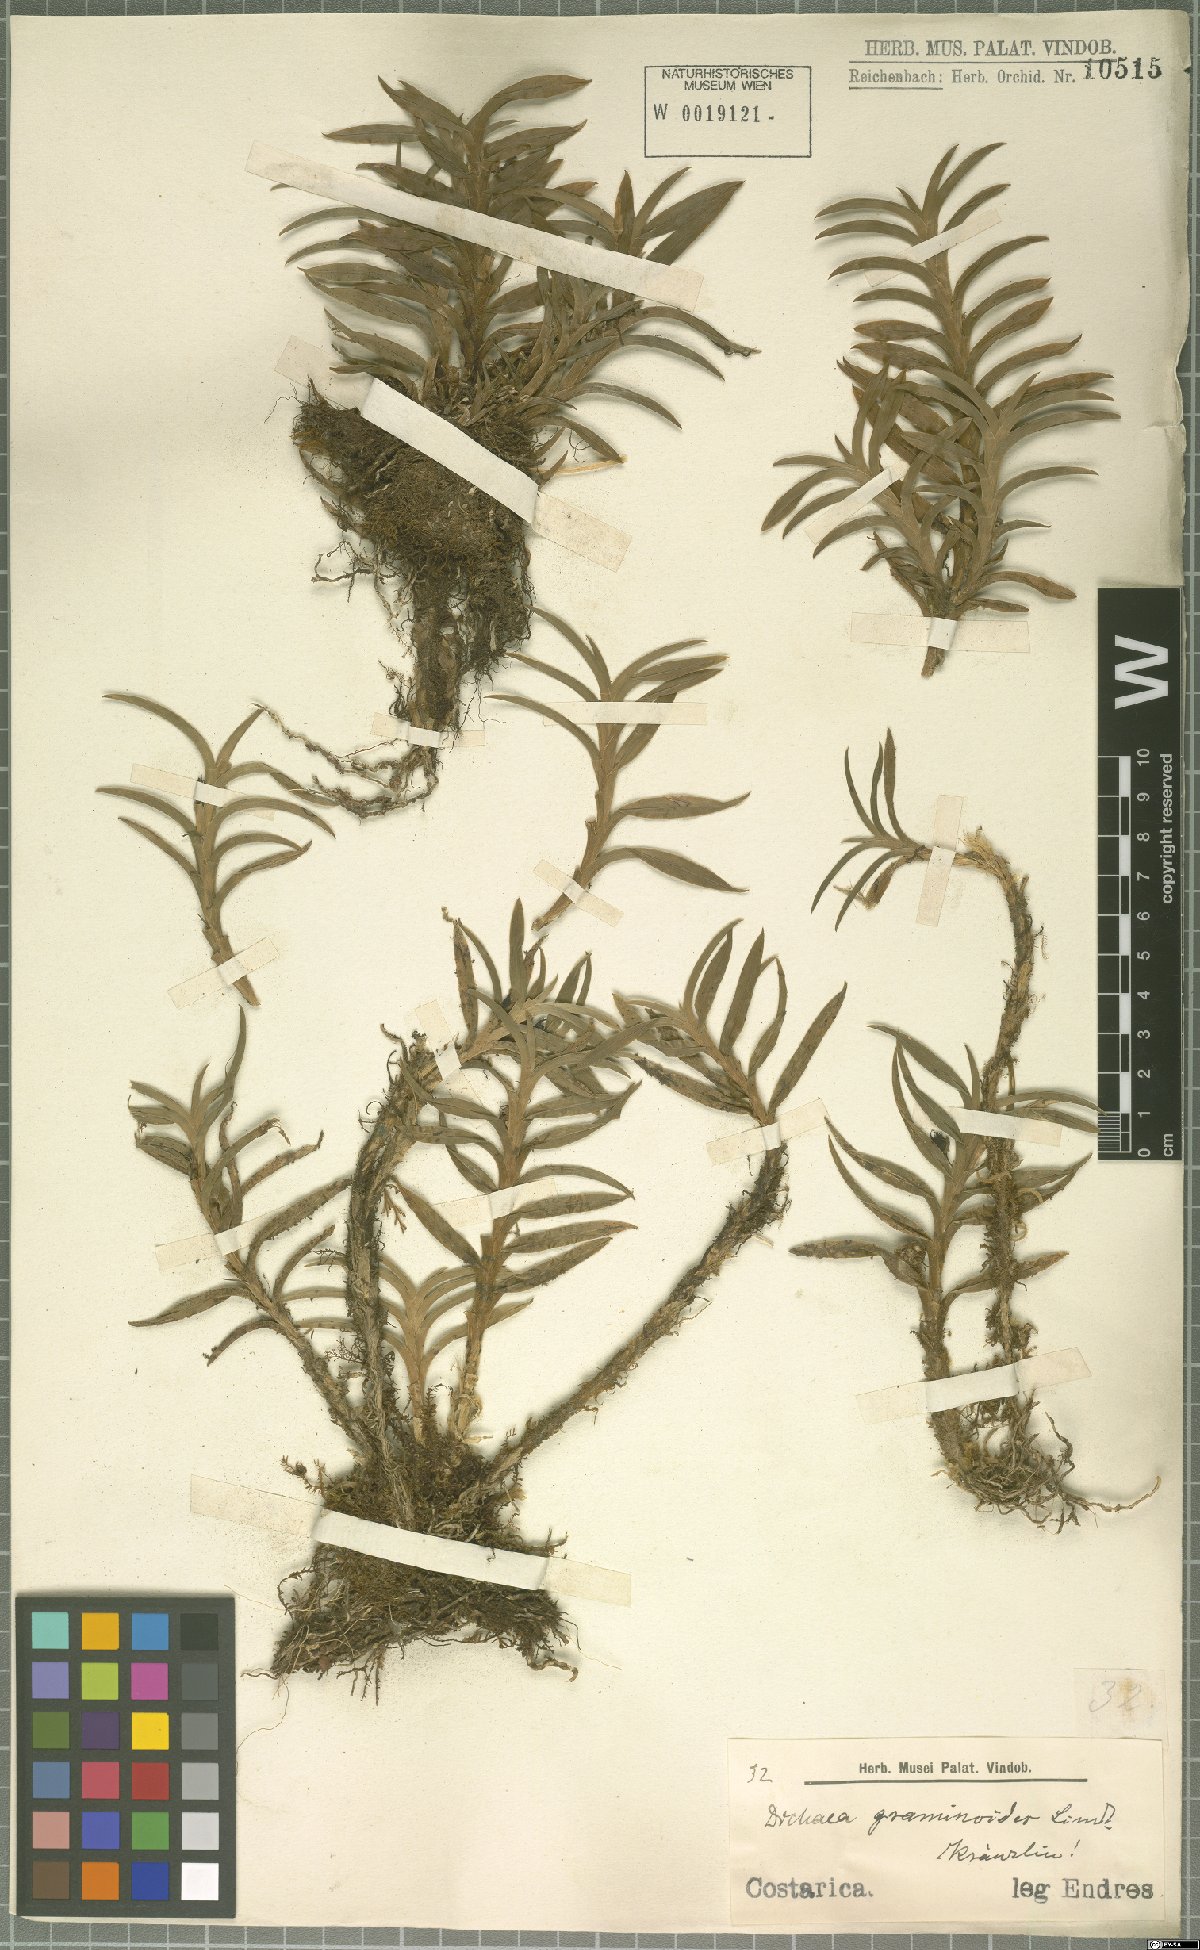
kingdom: Plantae
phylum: Tracheophyta
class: Liliopsida
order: Asparagales
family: Orchidaceae
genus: Dichaea
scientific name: Dichaea graminoides
